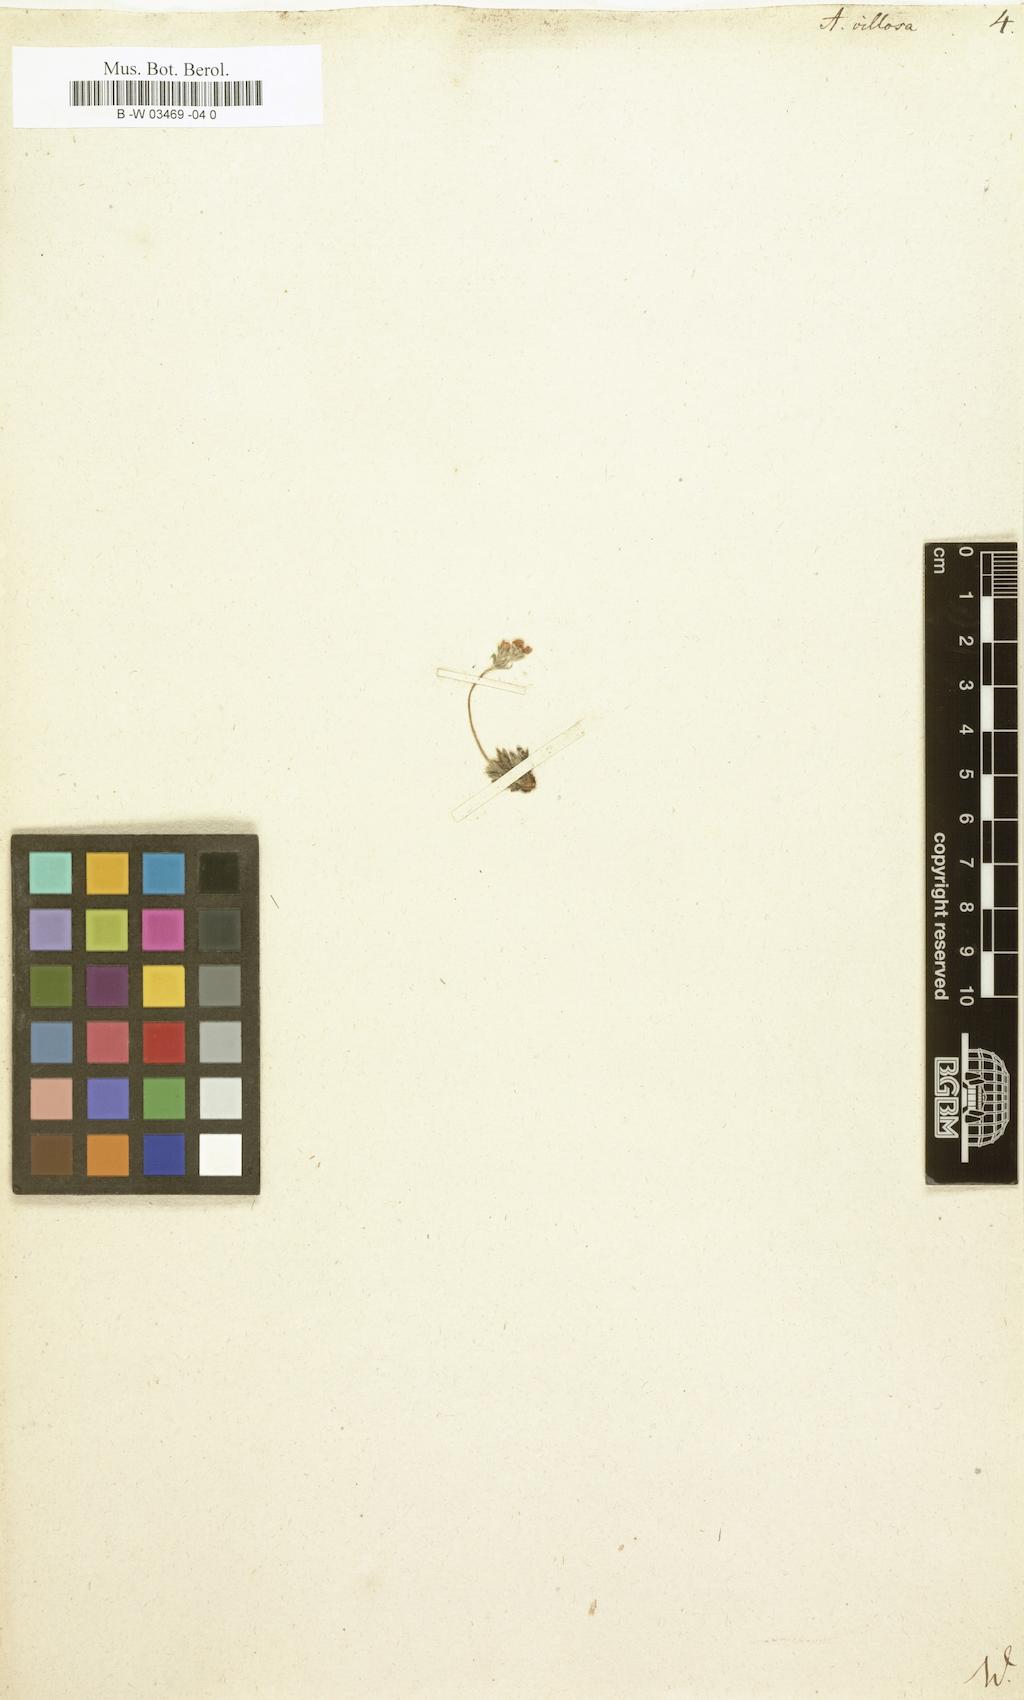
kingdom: Plantae
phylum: Tracheophyta
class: Magnoliopsida
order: Ericales
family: Primulaceae
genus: Androsace
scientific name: Androsace villosa
